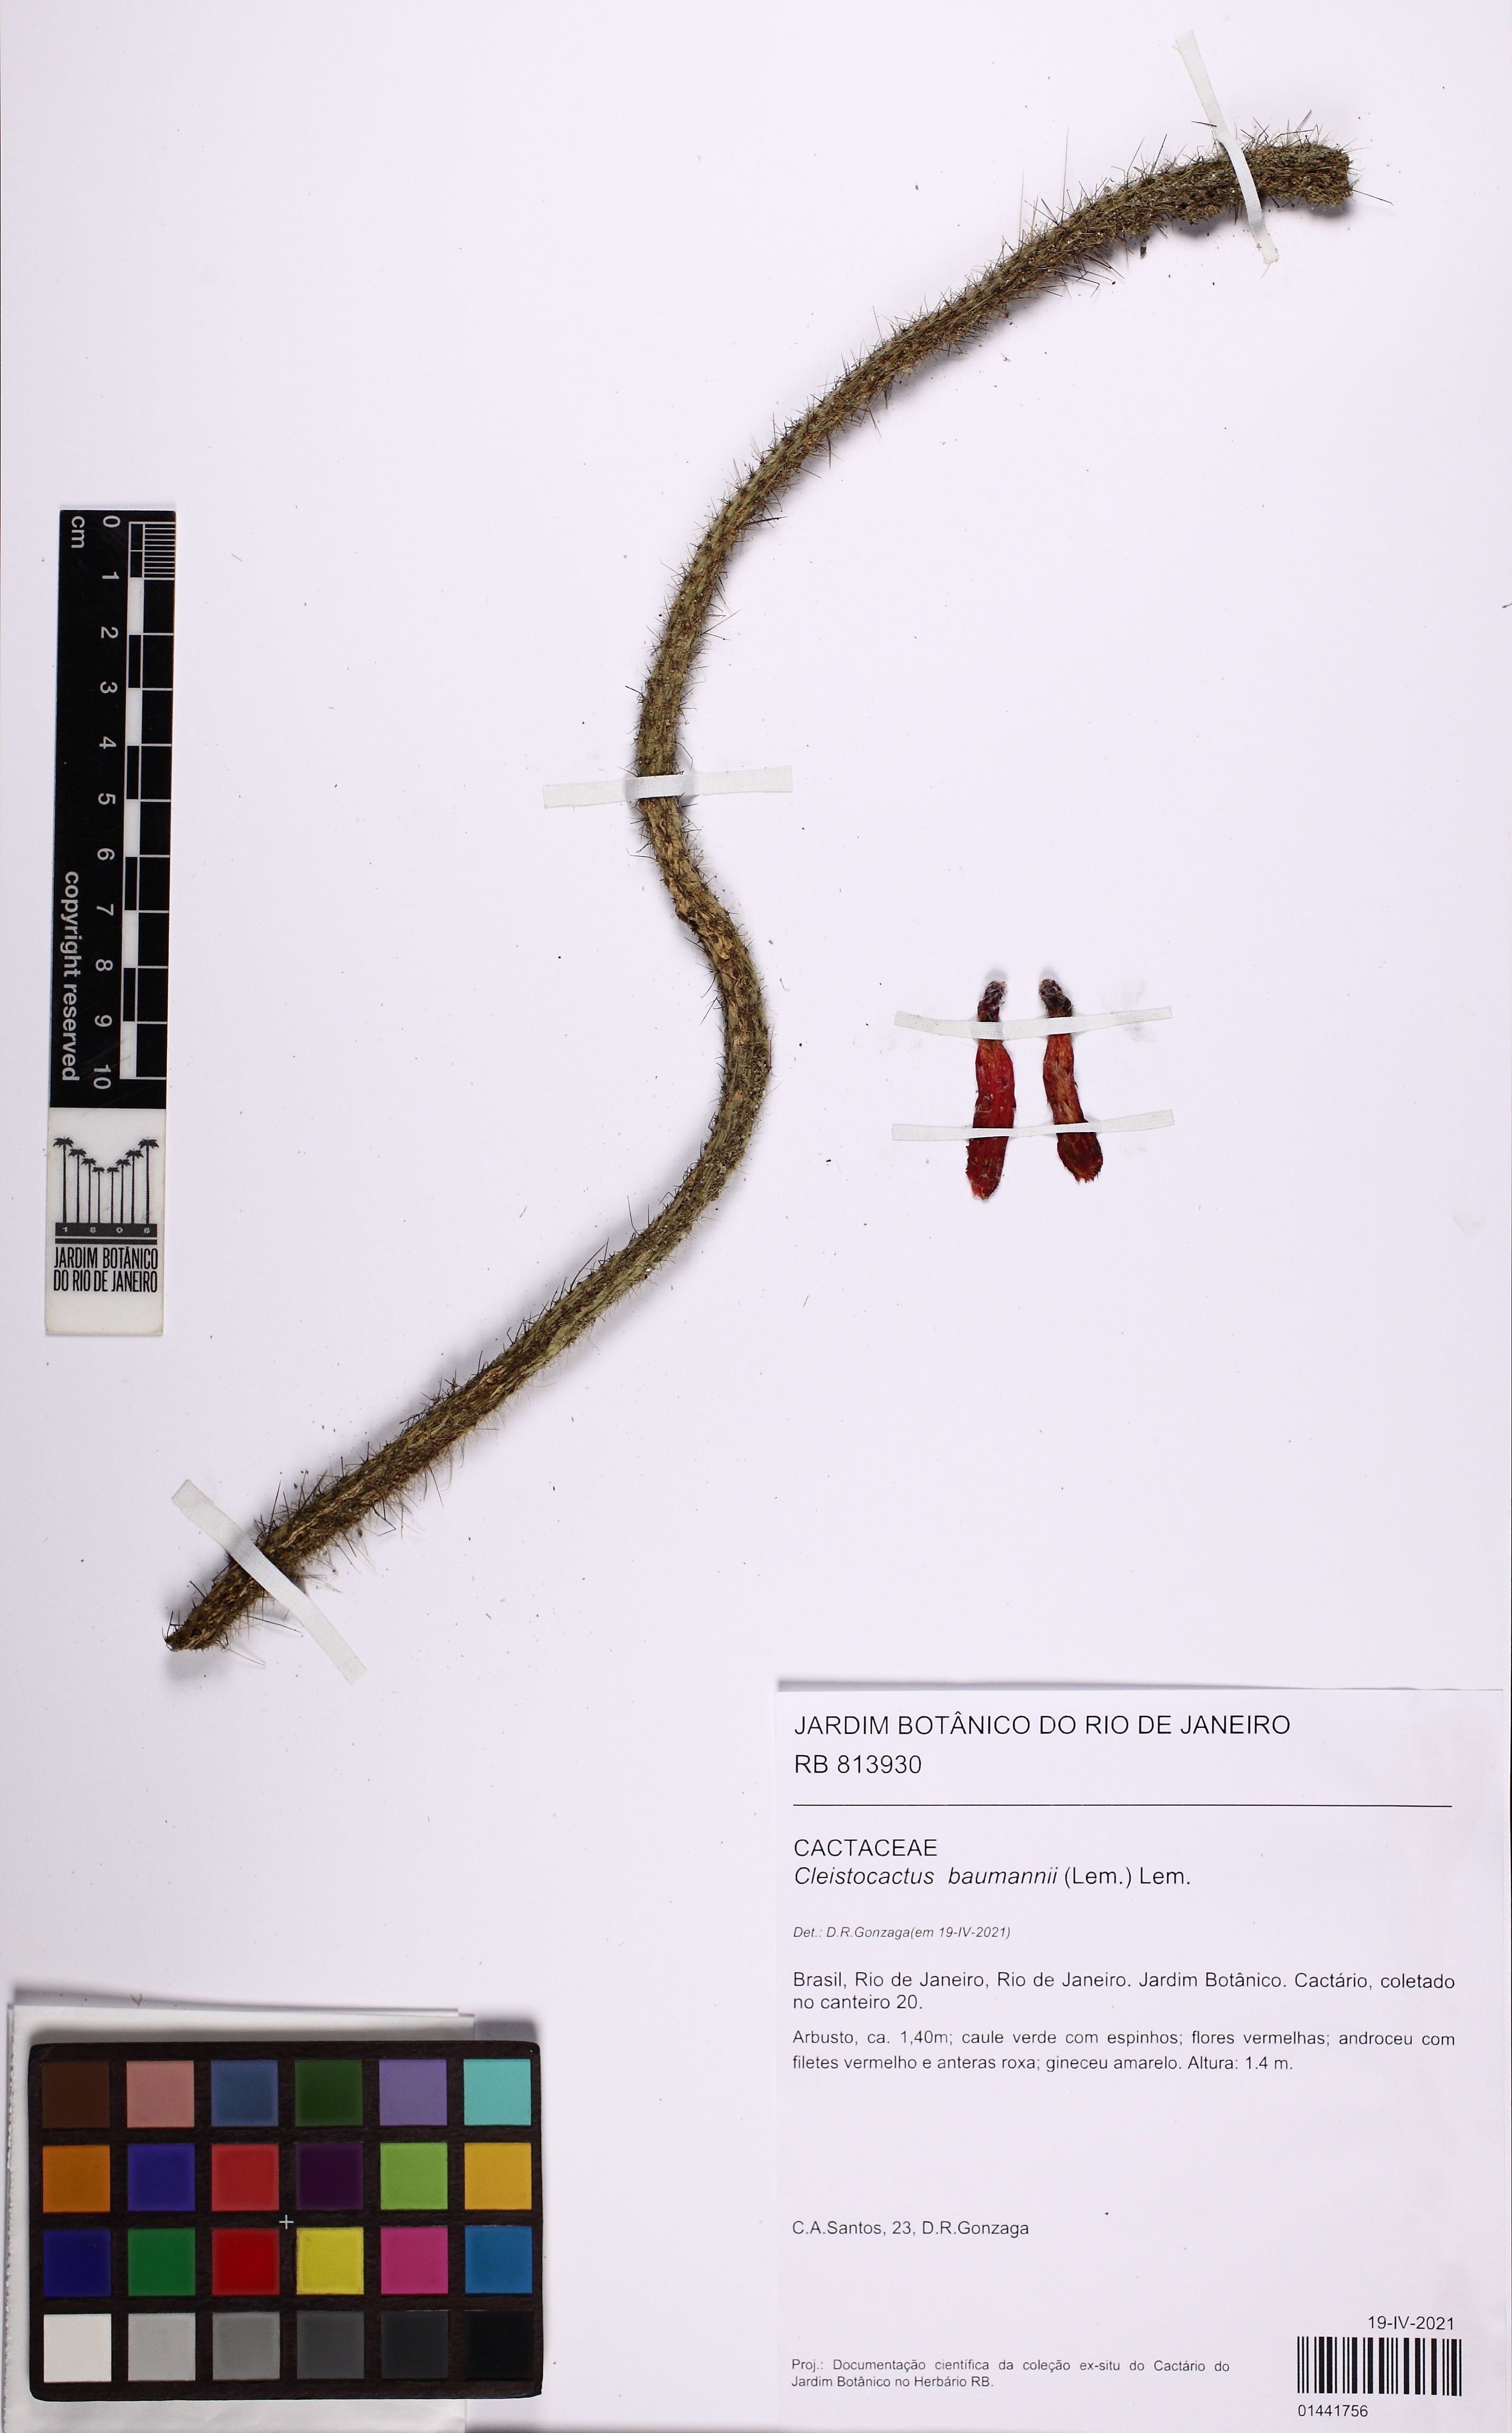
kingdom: Plantae
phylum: Tracheophyta
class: Magnoliopsida
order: Caryophyllales
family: Cactaceae
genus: Cleistocactus
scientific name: Cleistocactus baumannii
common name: Scarlet-bugler
